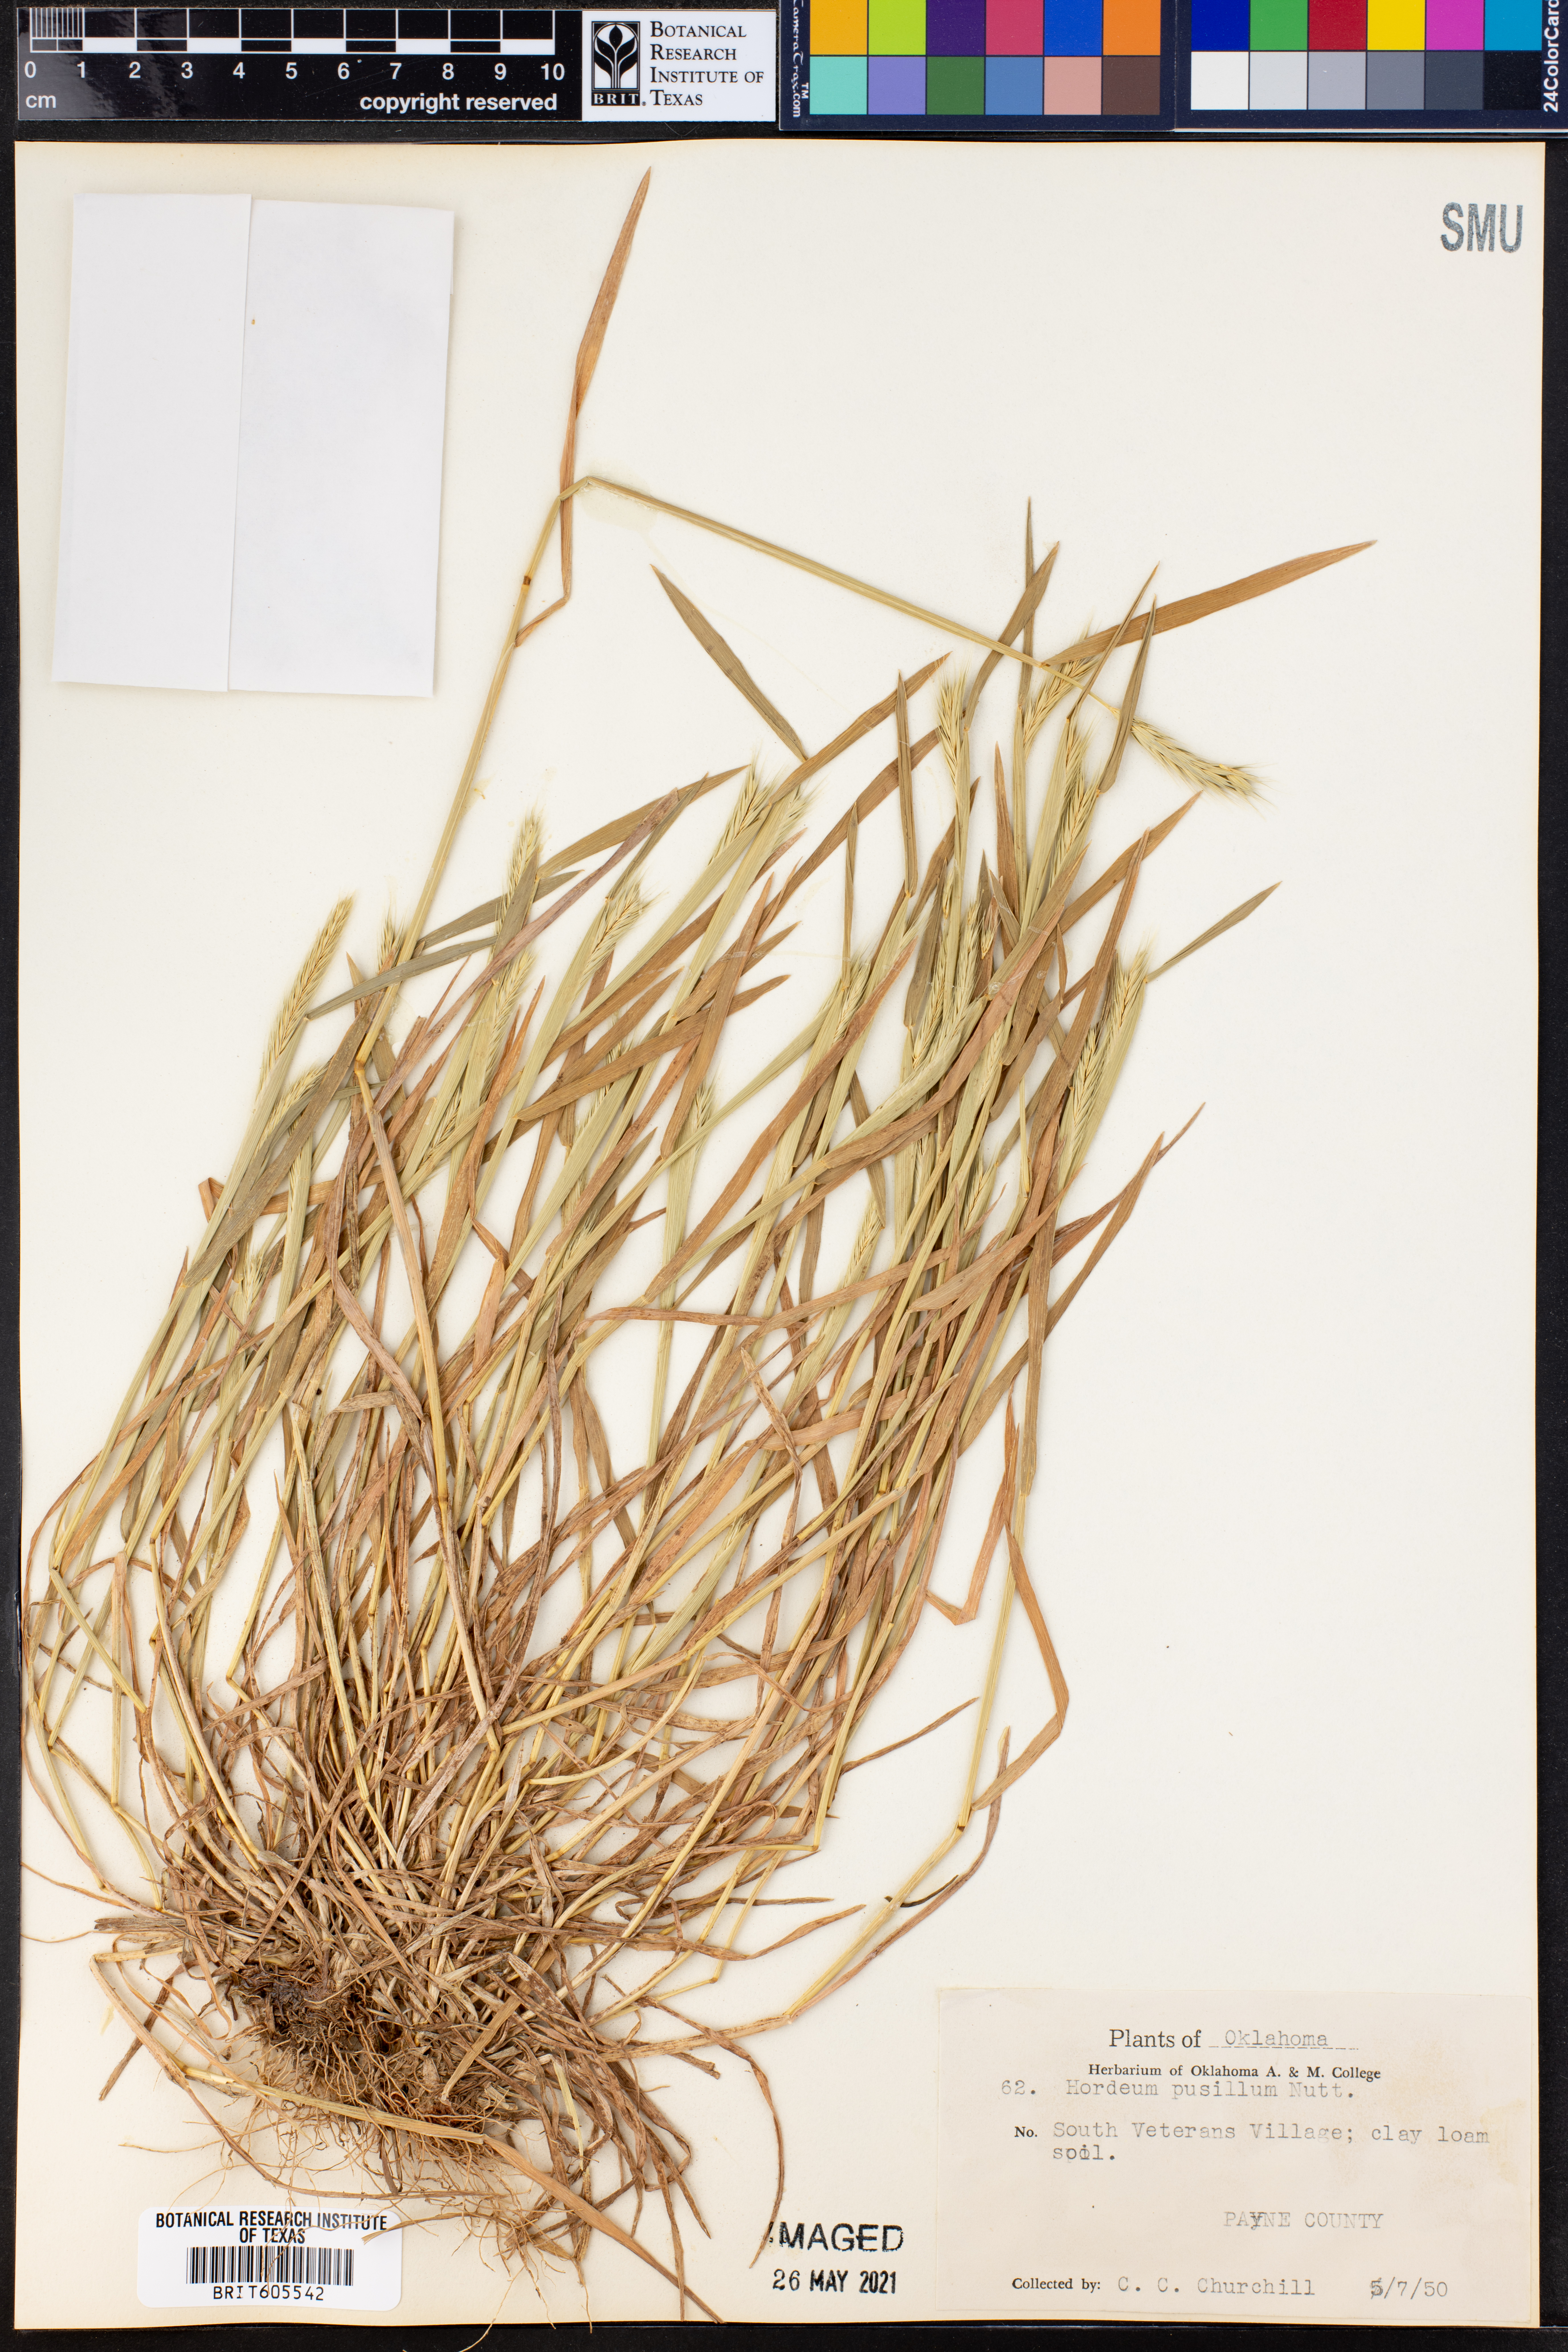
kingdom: Plantae
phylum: Tracheophyta
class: Liliopsida
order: Poales
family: Poaceae
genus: Hordeum
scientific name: Hordeum pusillum
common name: Little barley
